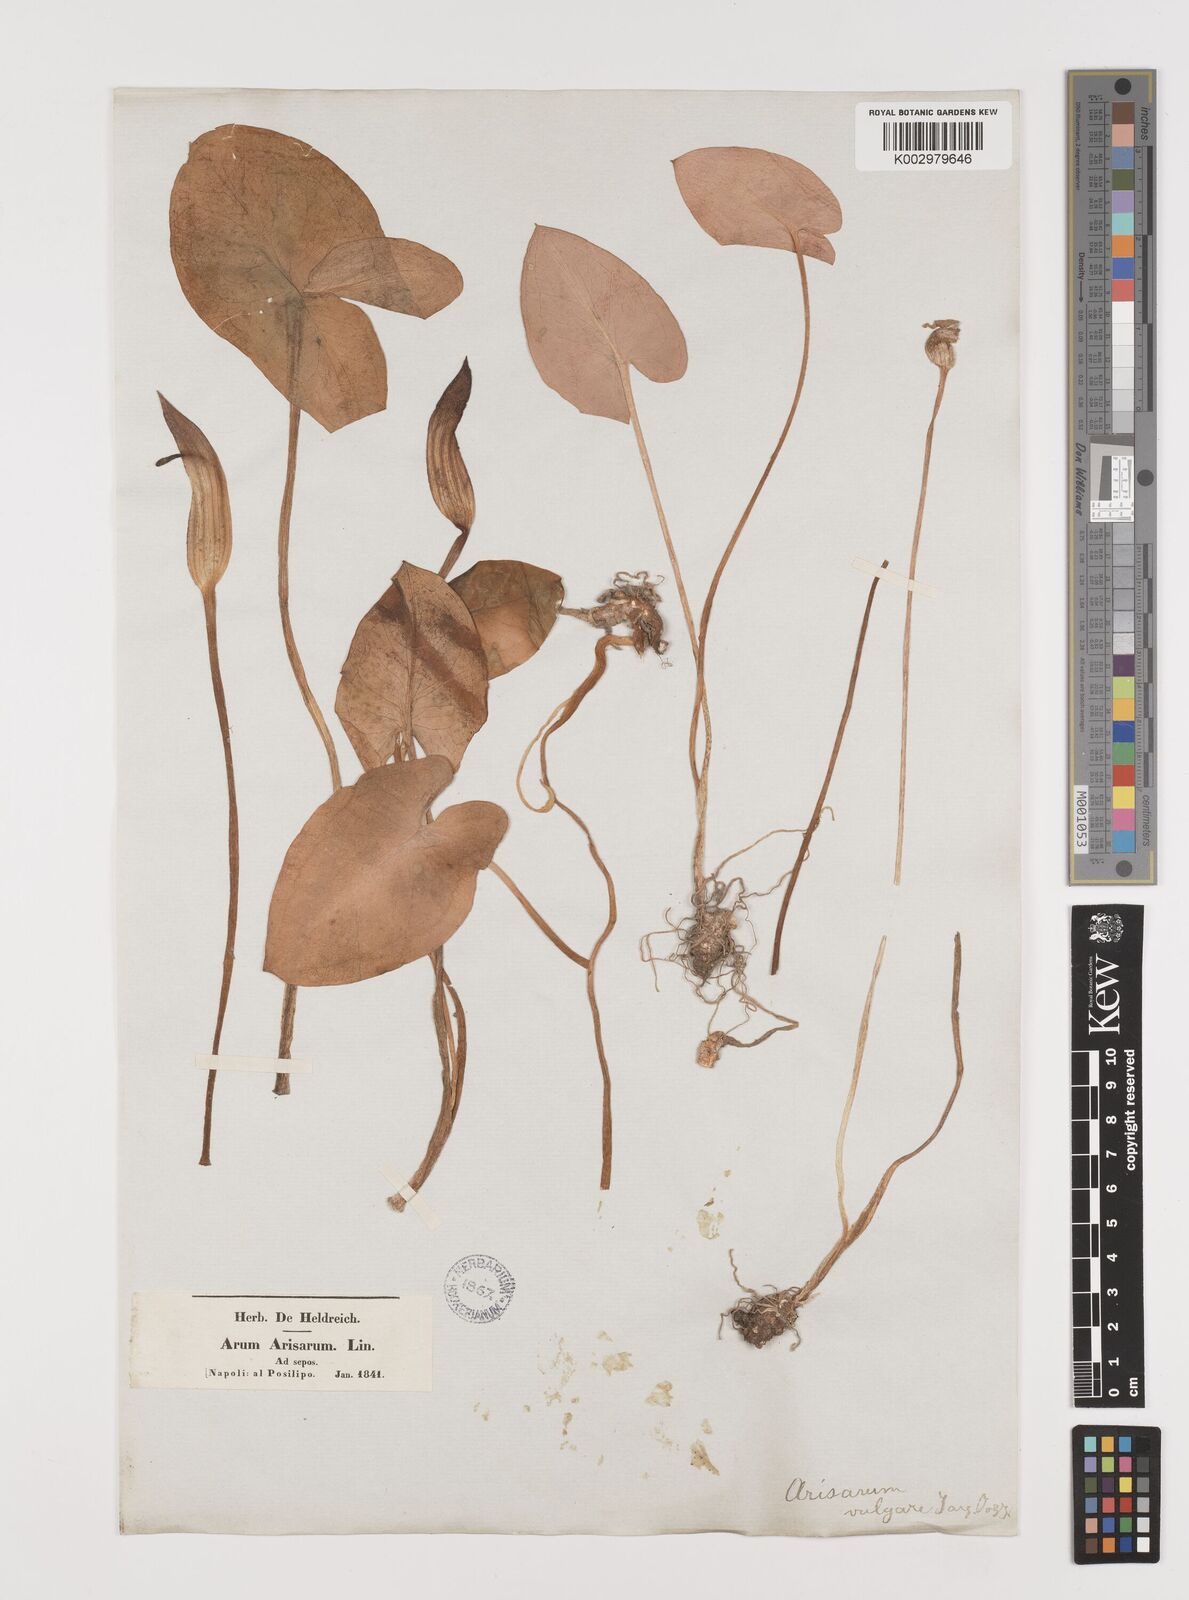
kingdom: Plantae
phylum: Tracheophyta
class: Liliopsida
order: Alismatales
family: Araceae
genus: Arisarum
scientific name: Arisarum vulgare
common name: Common arisarum
